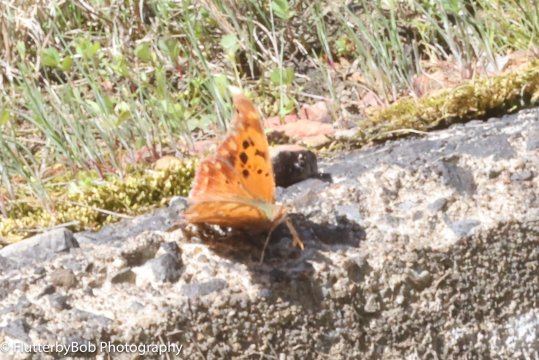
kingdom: Animalia
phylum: Arthropoda
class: Insecta
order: Lepidoptera
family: Nymphalidae
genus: Polygonia
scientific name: Polygonia interrogationis
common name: Question Mark
